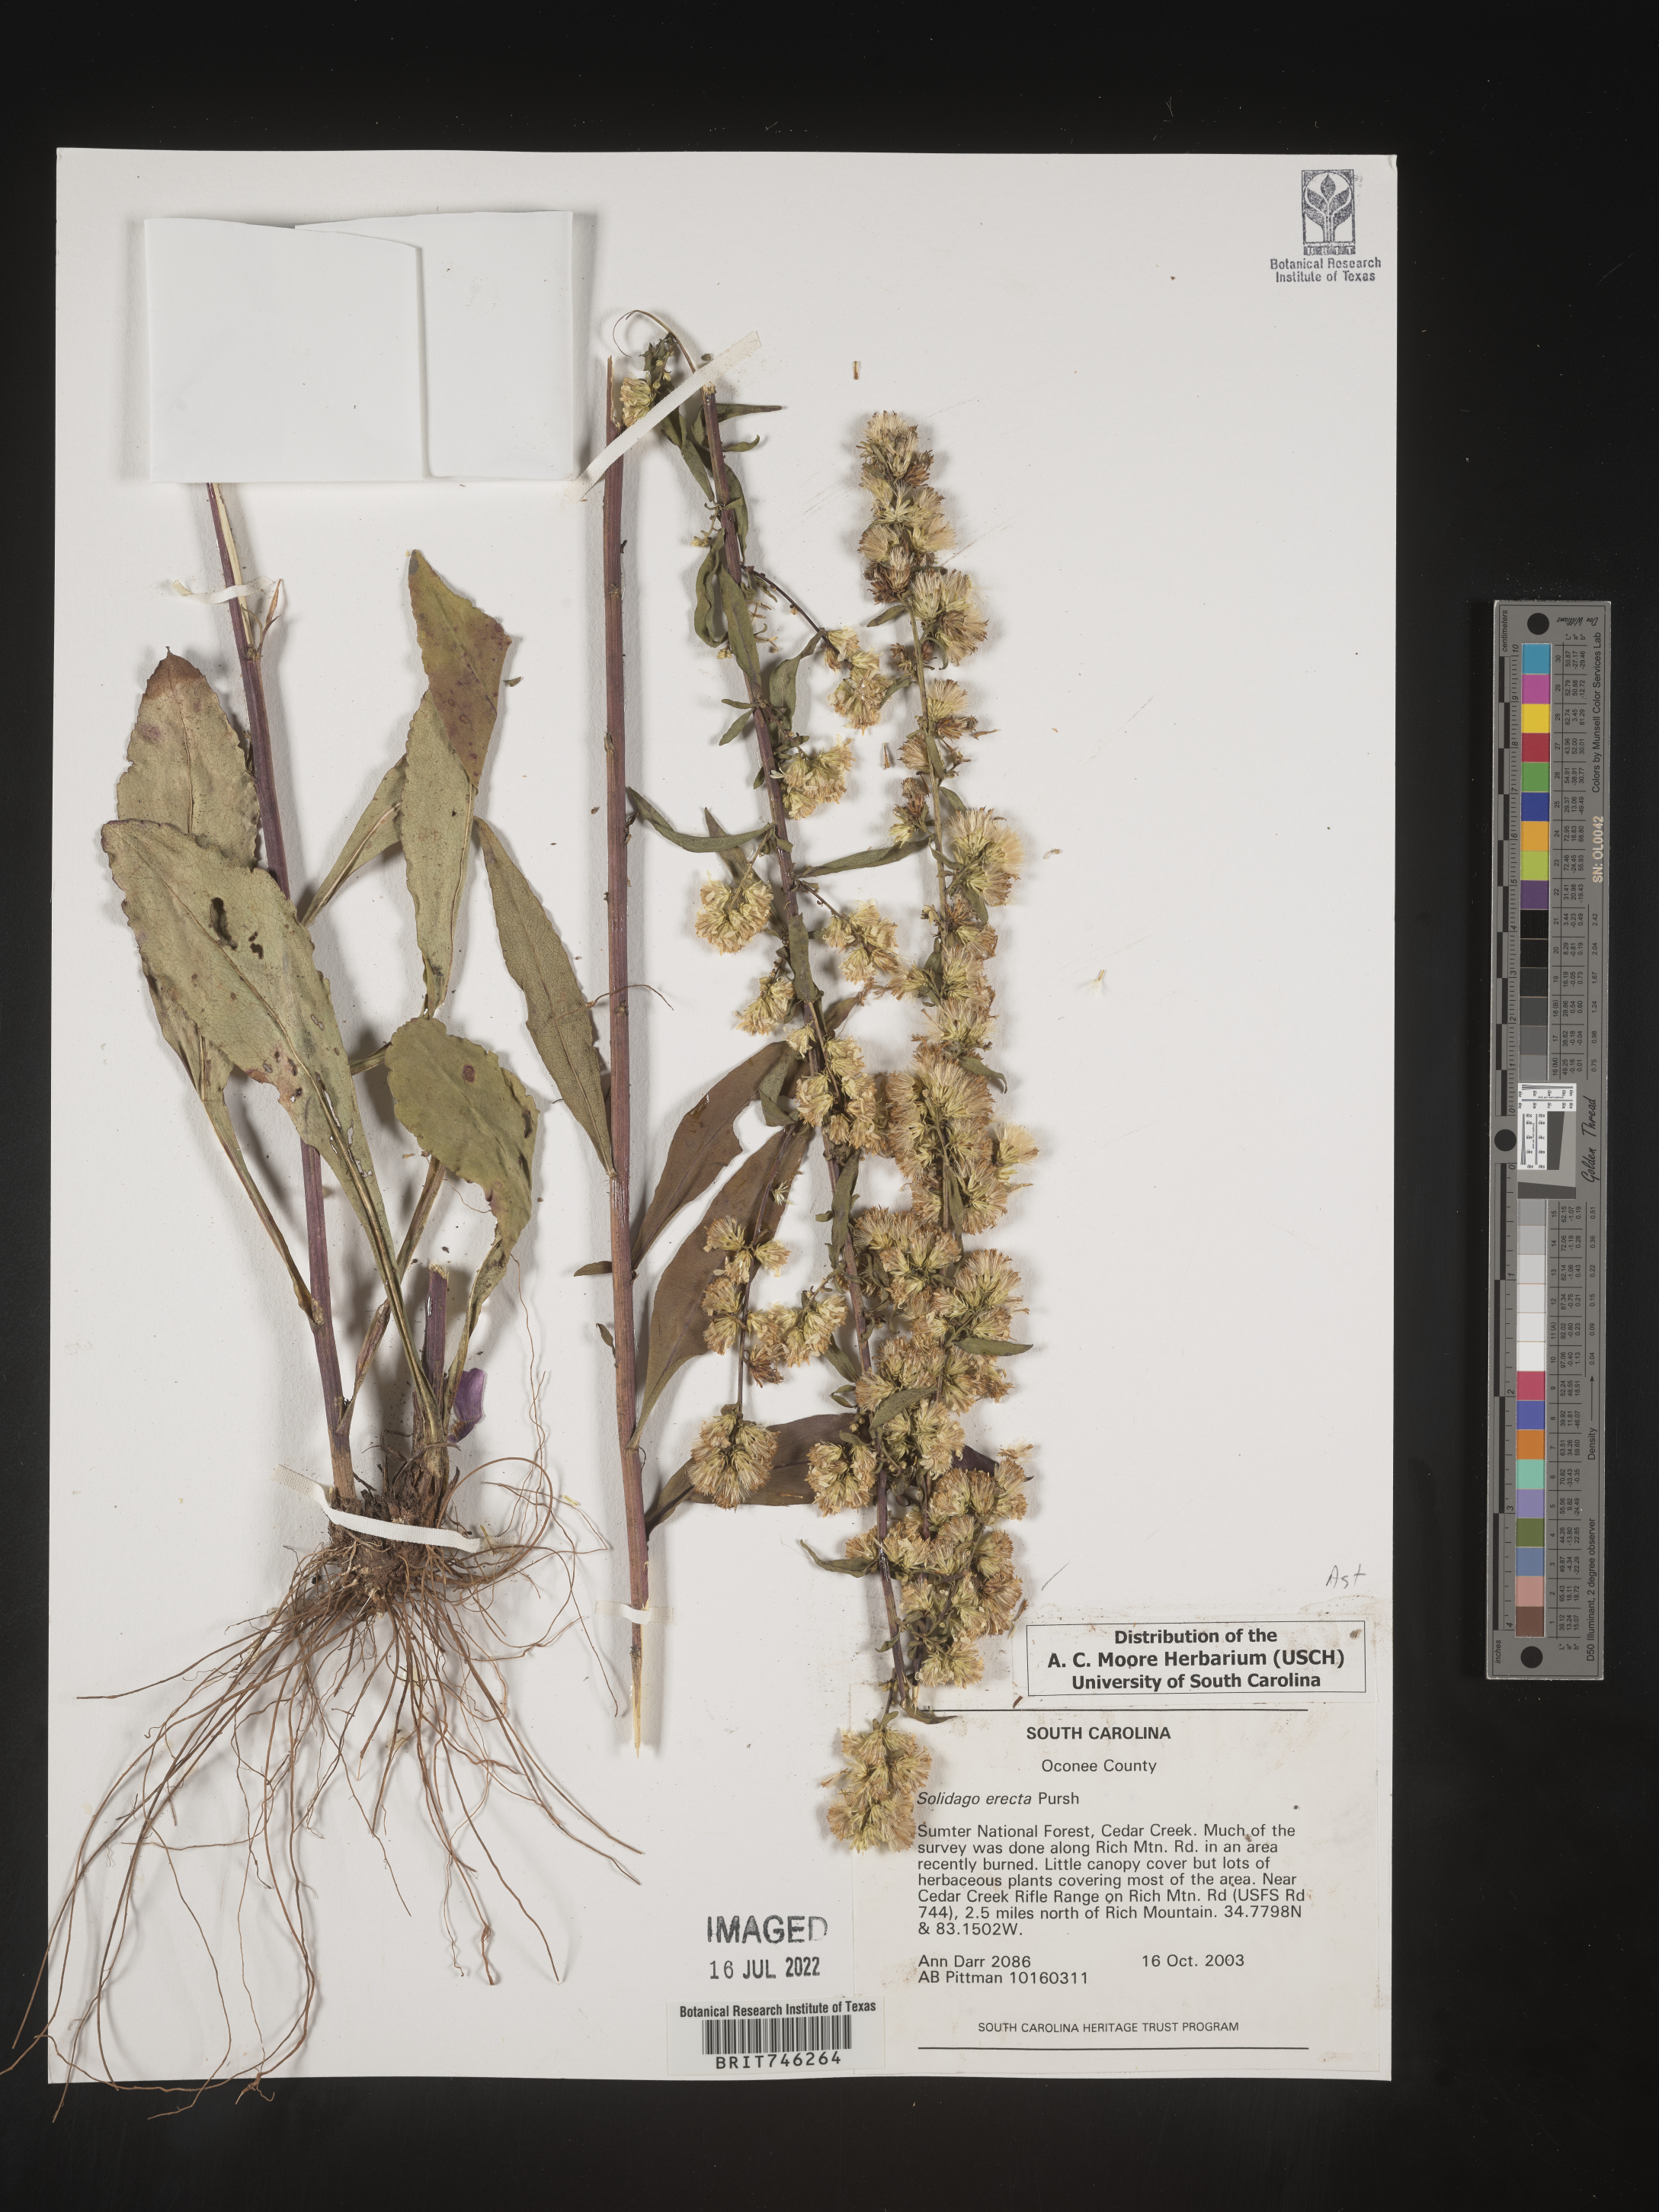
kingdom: Plantae
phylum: Tracheophyta
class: Magnoliopsida
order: Asterales
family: Asteraceae
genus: Solidago
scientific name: Solidago erecta
